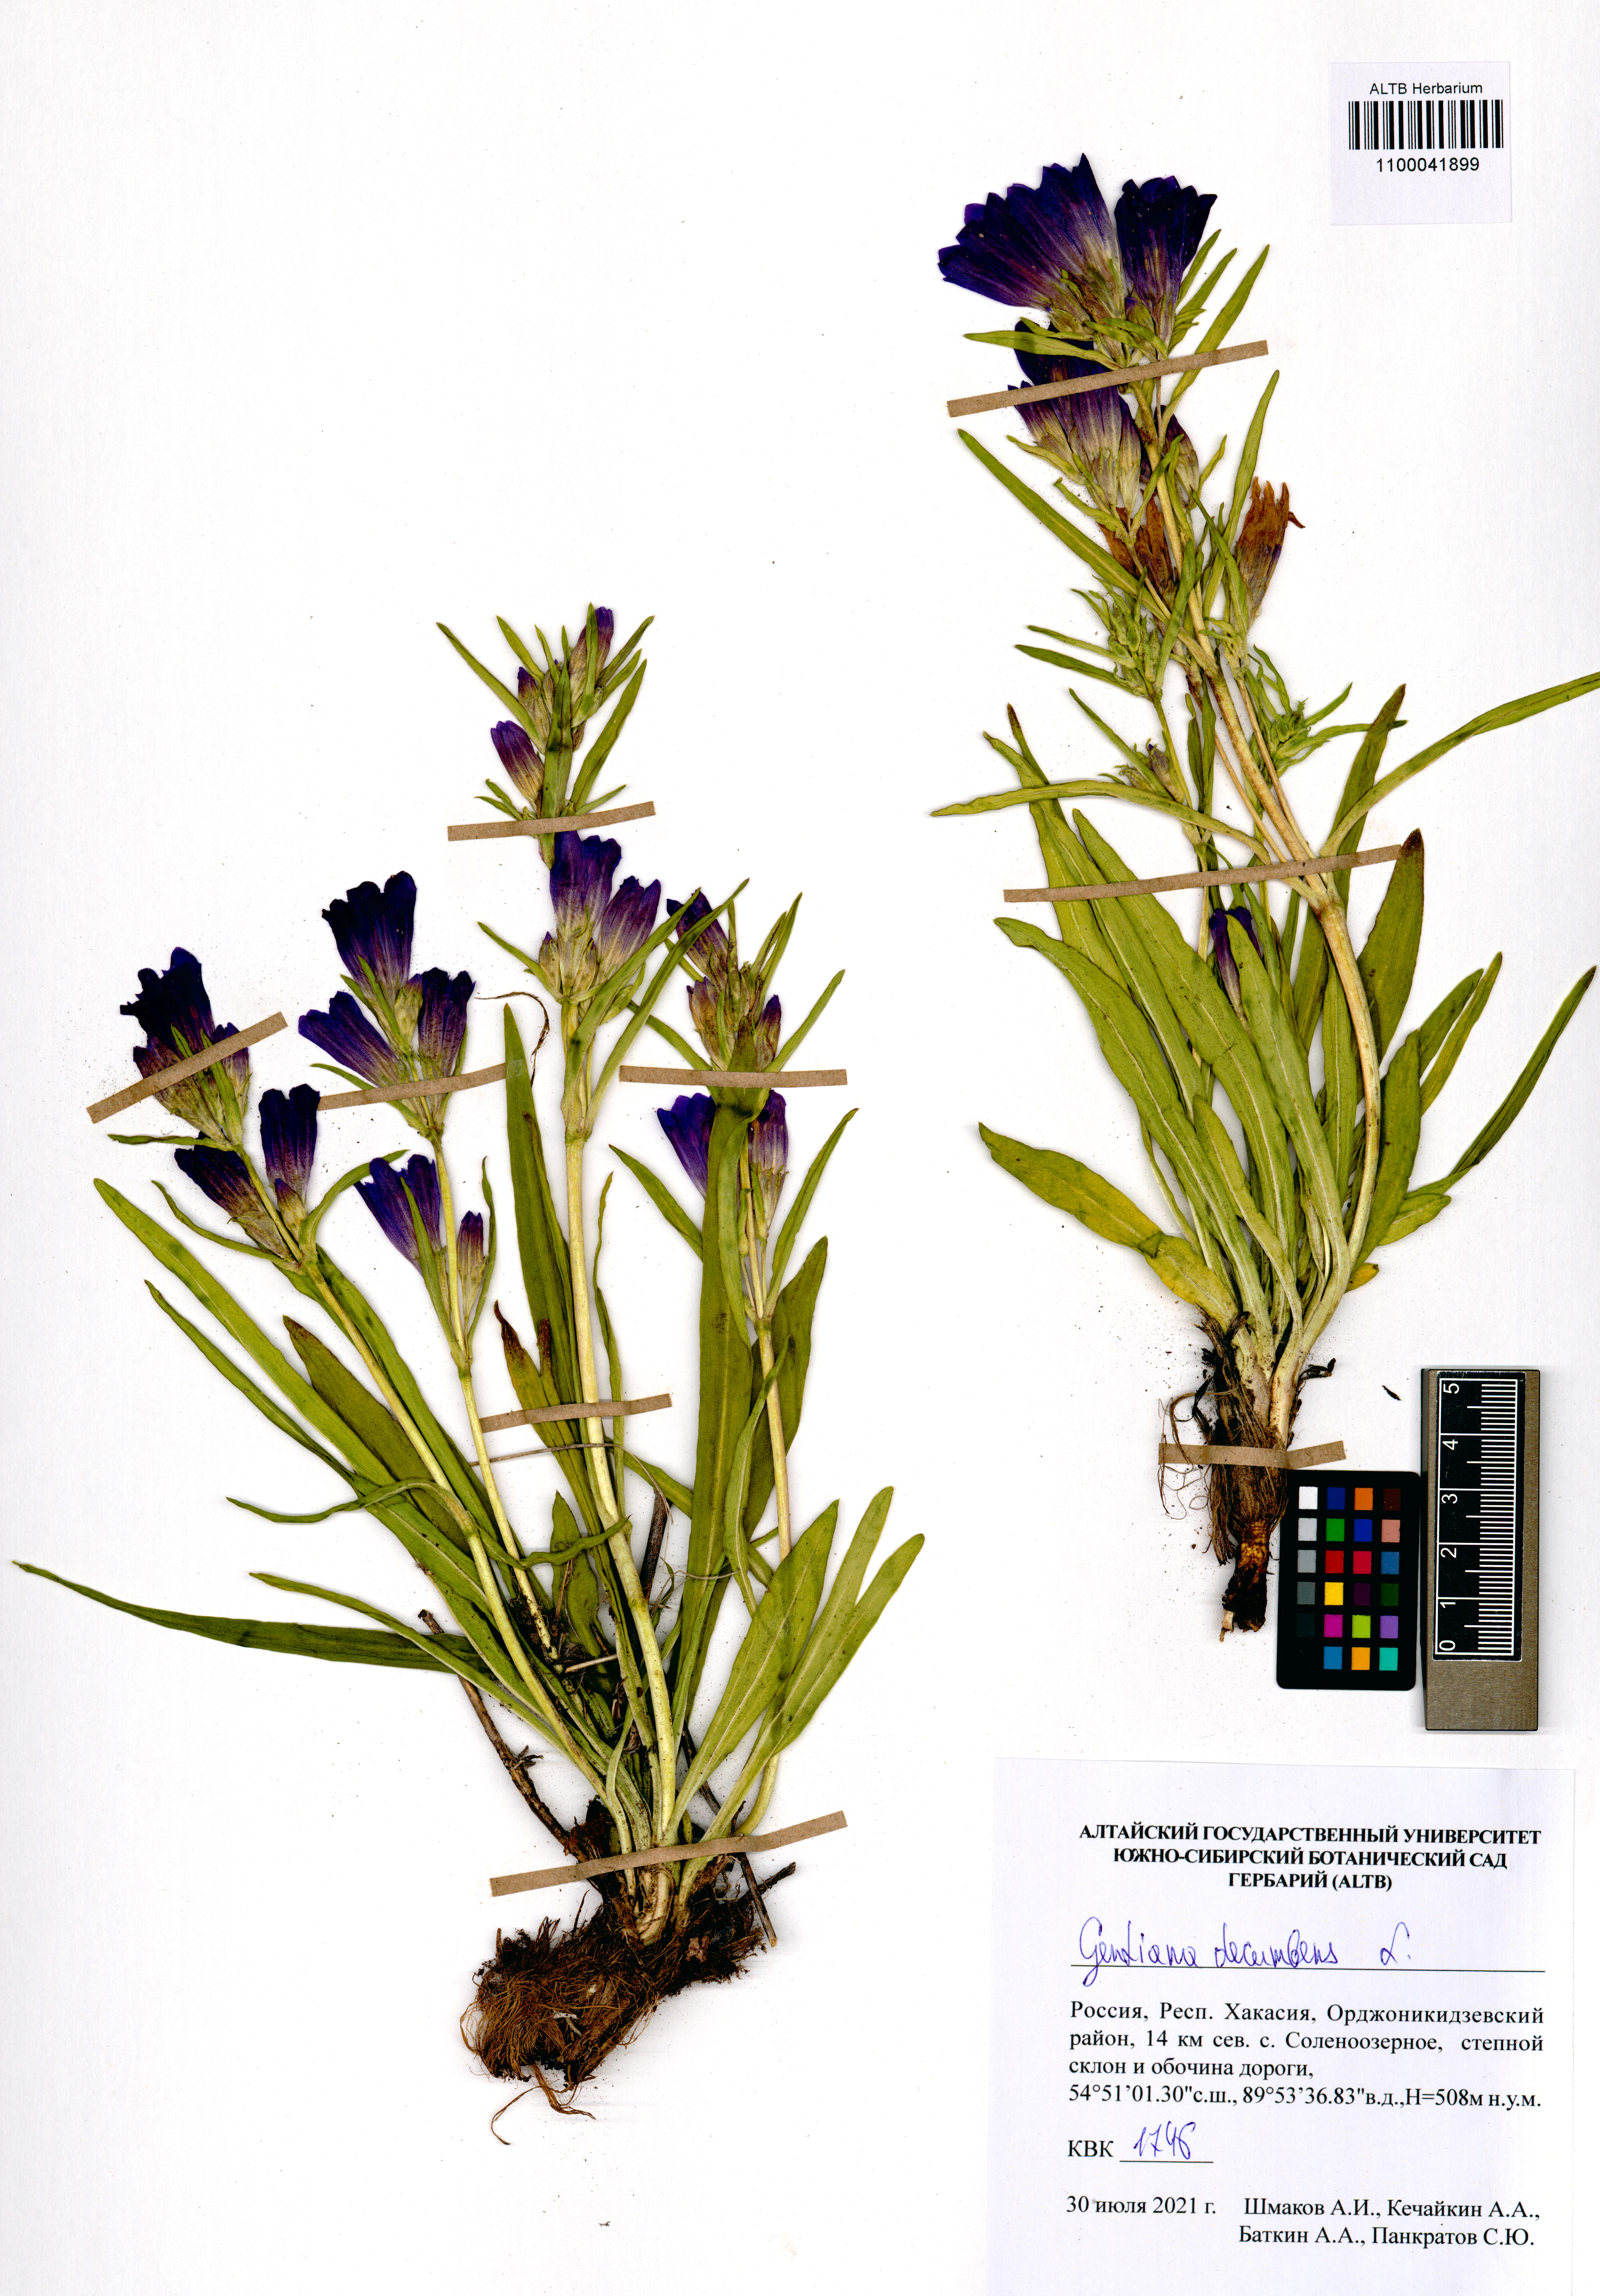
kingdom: Plantae
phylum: Tracheophyta
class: Magnoliopsida
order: Gentianales
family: Gentianaceae
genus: Gentiana
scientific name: Gentiana decumbens
